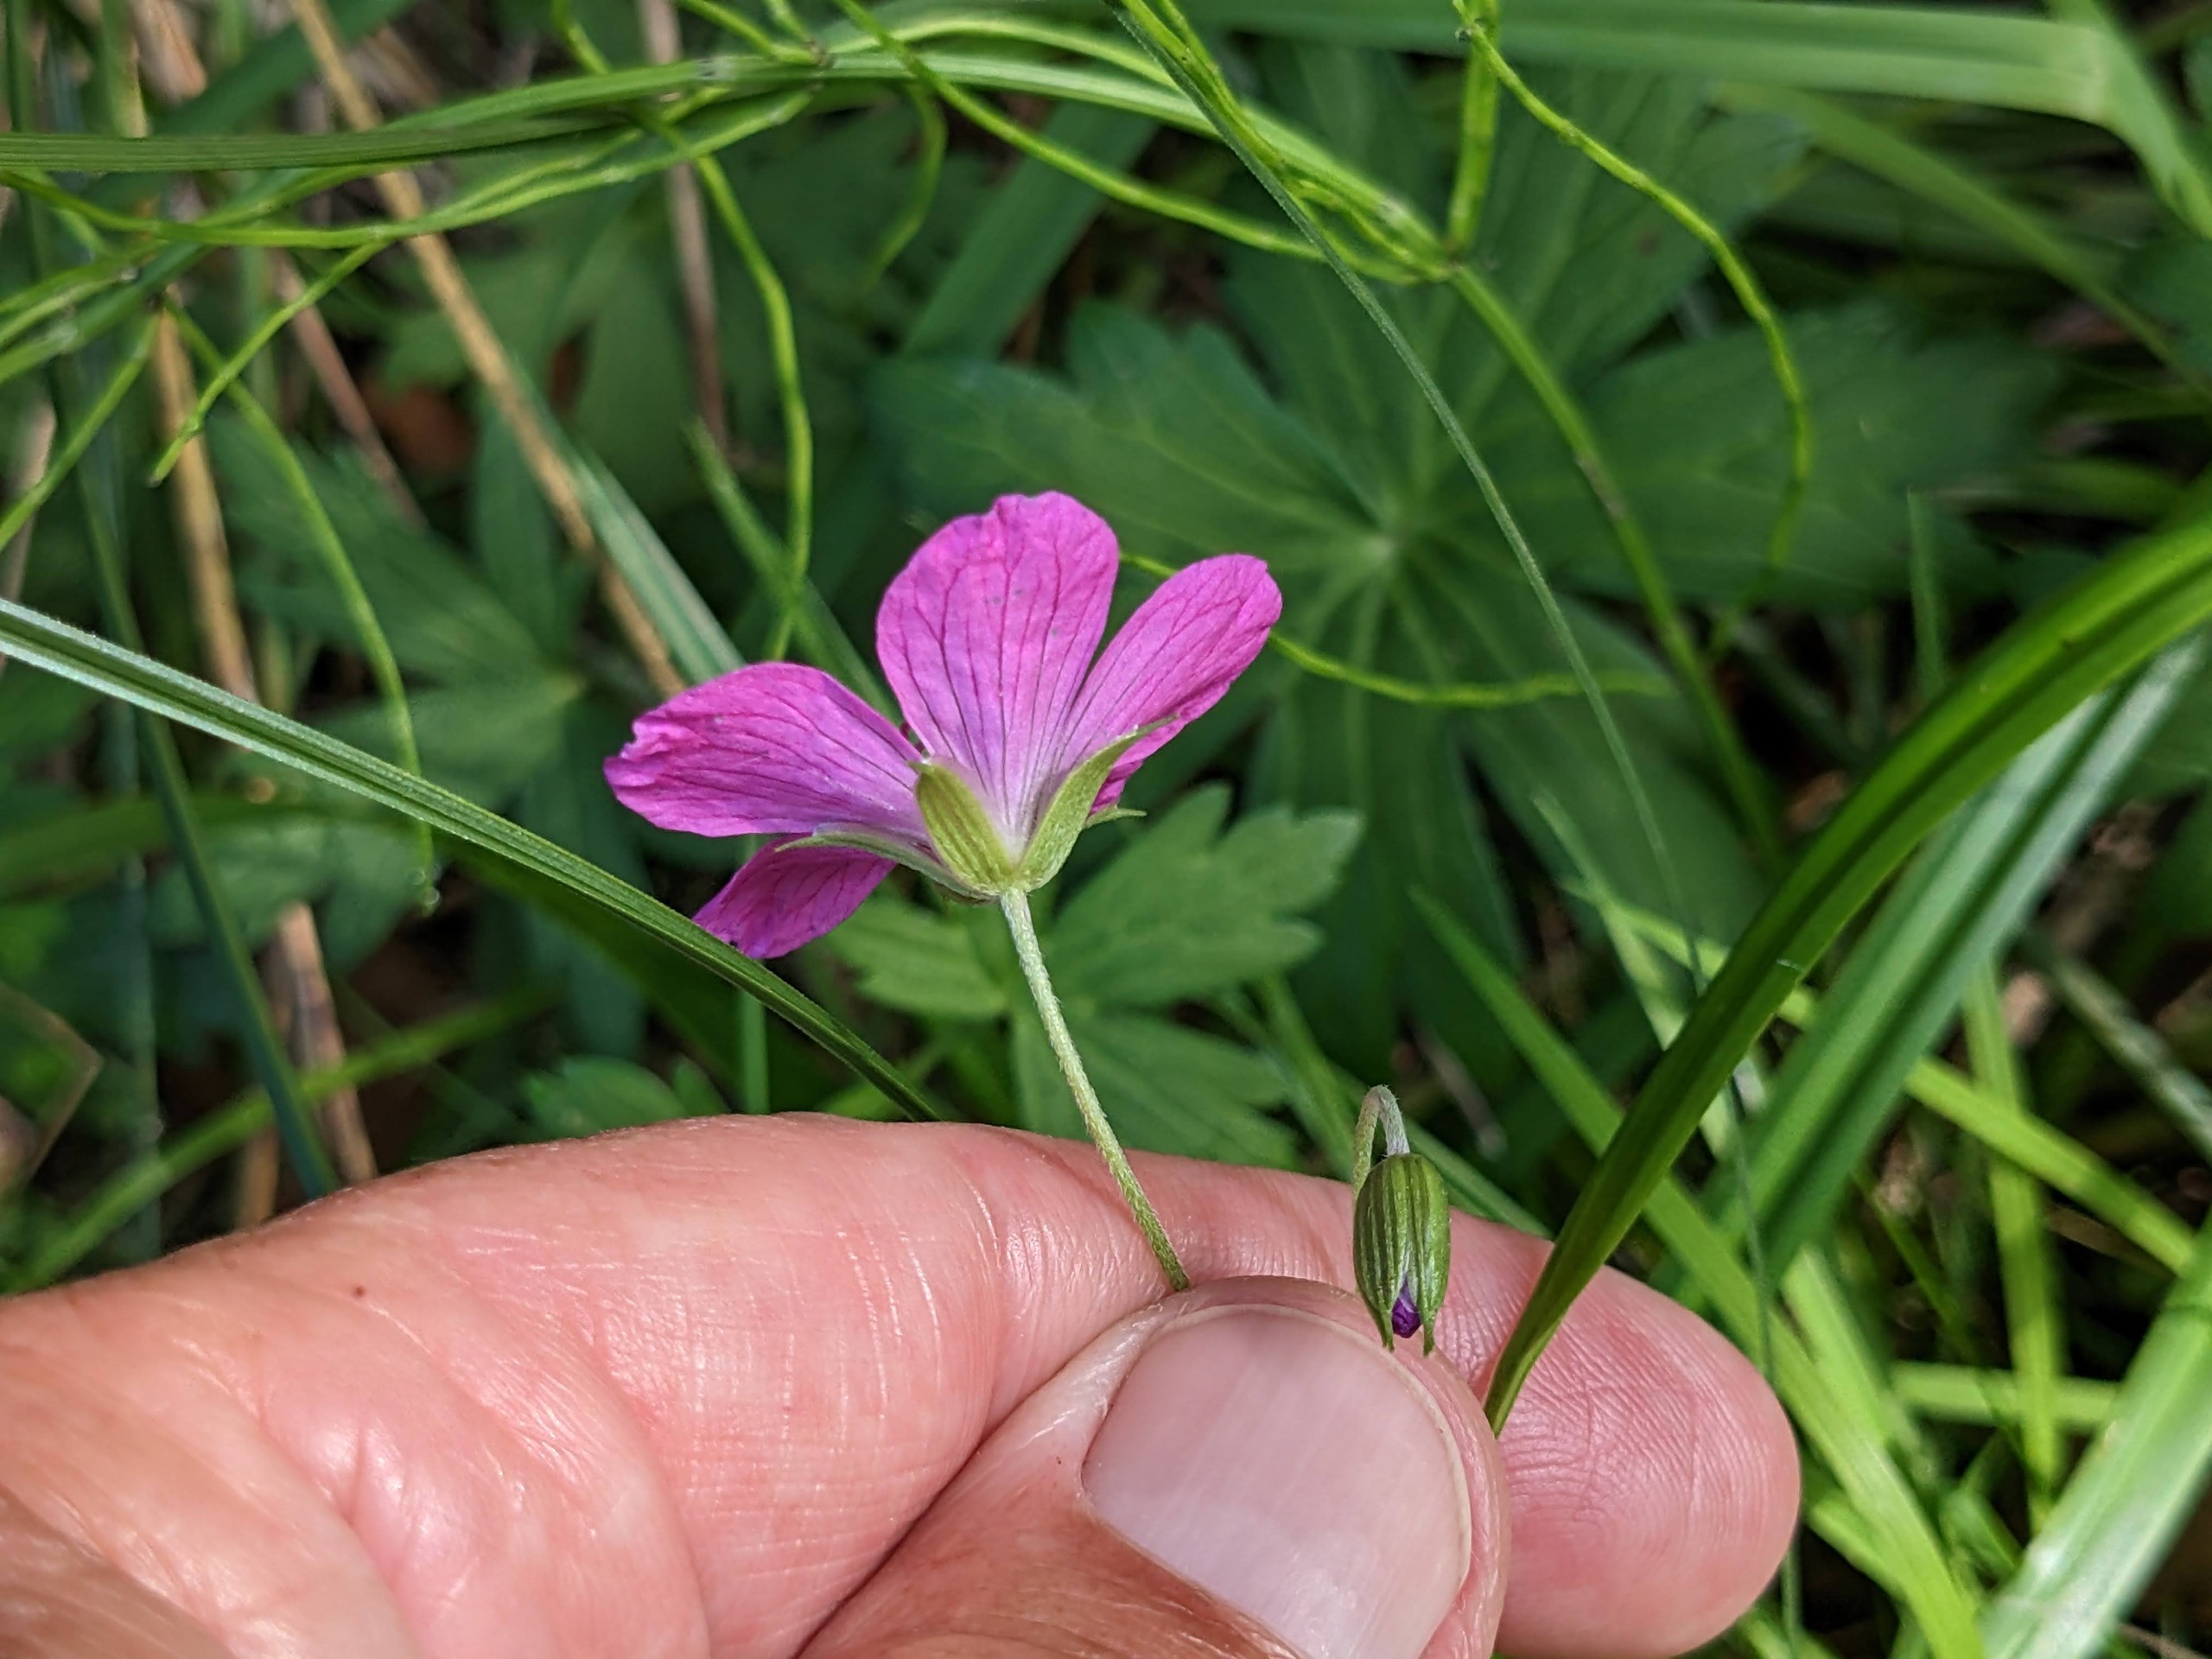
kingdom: Plantae
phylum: Tracheophyta
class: Magnoliopsida
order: Geraniales
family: Geraniaceae
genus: Geranium
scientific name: Geranium palustre
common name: Kær-storkenæb
